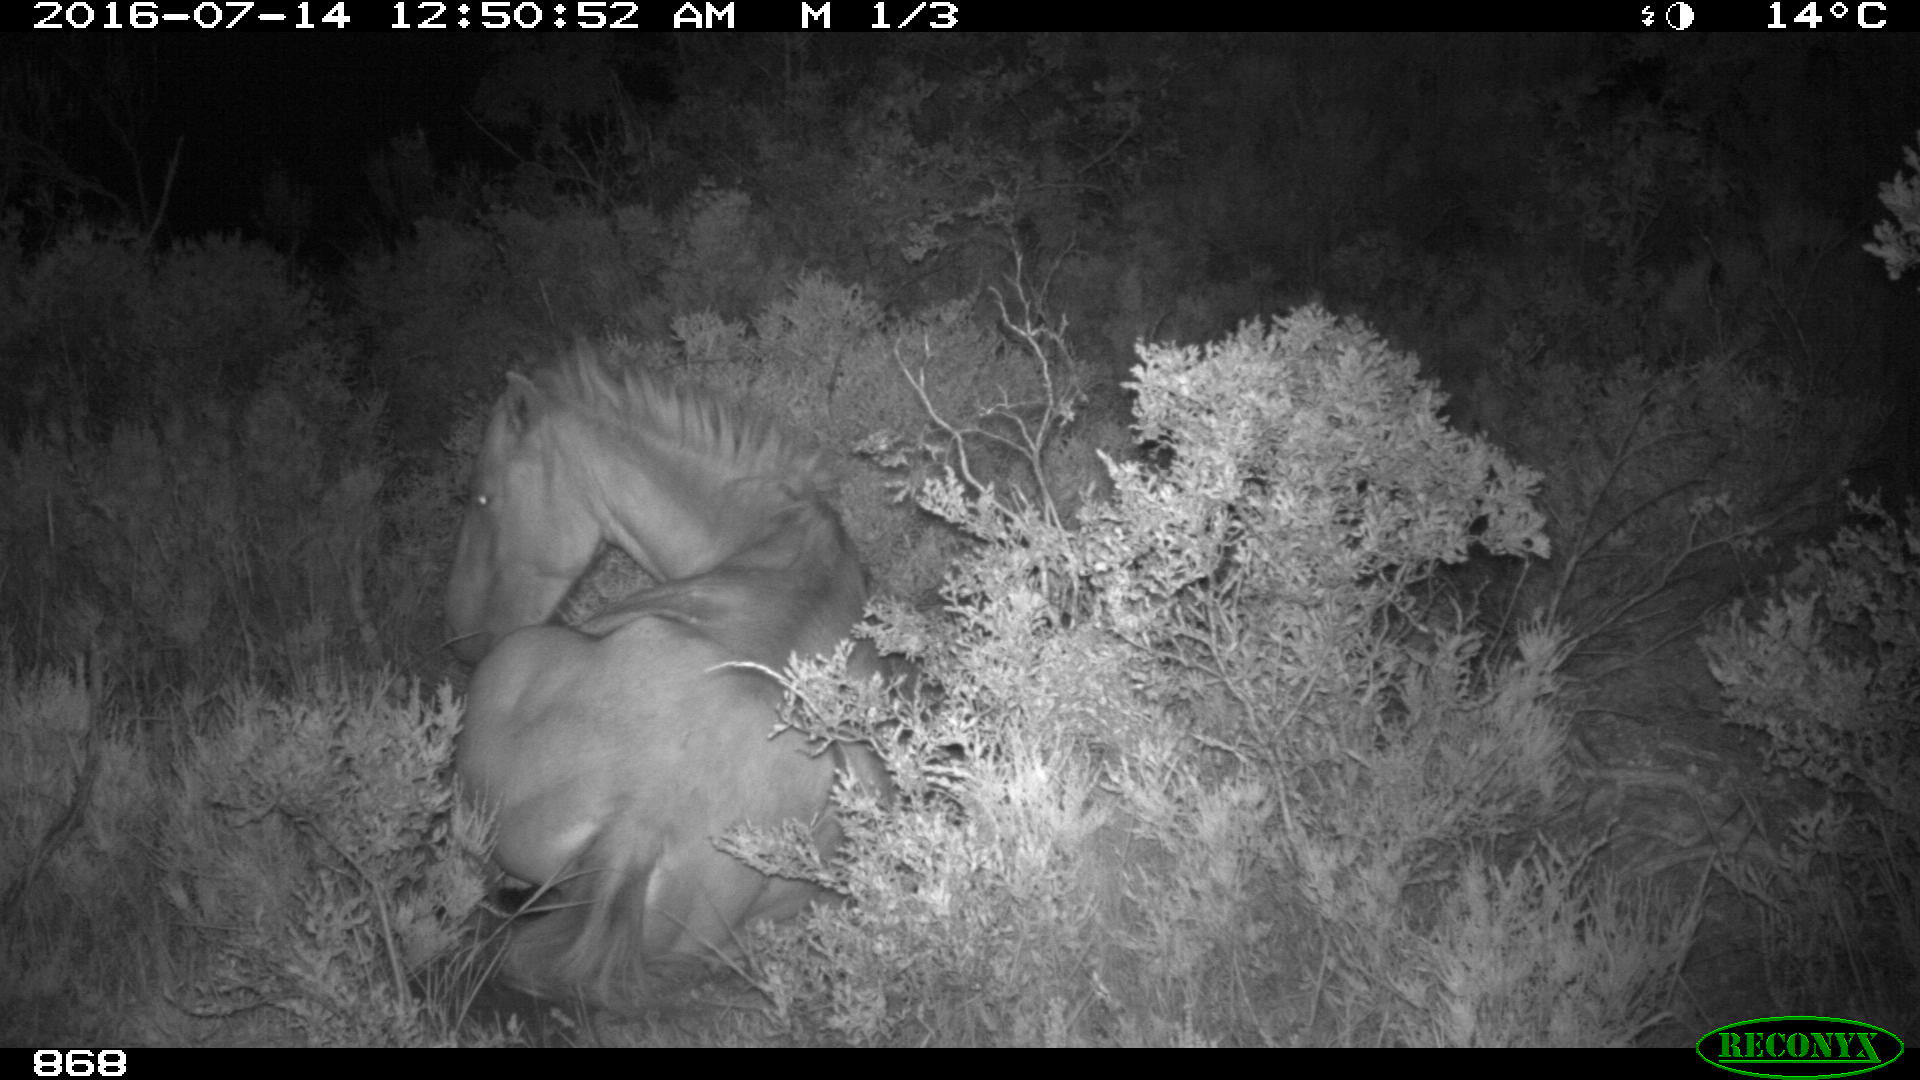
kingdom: Animalia
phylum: Chordata
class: Mammalia
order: Perissodactyla
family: Equidae
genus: Equus
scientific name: Equus caballus
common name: Horse
